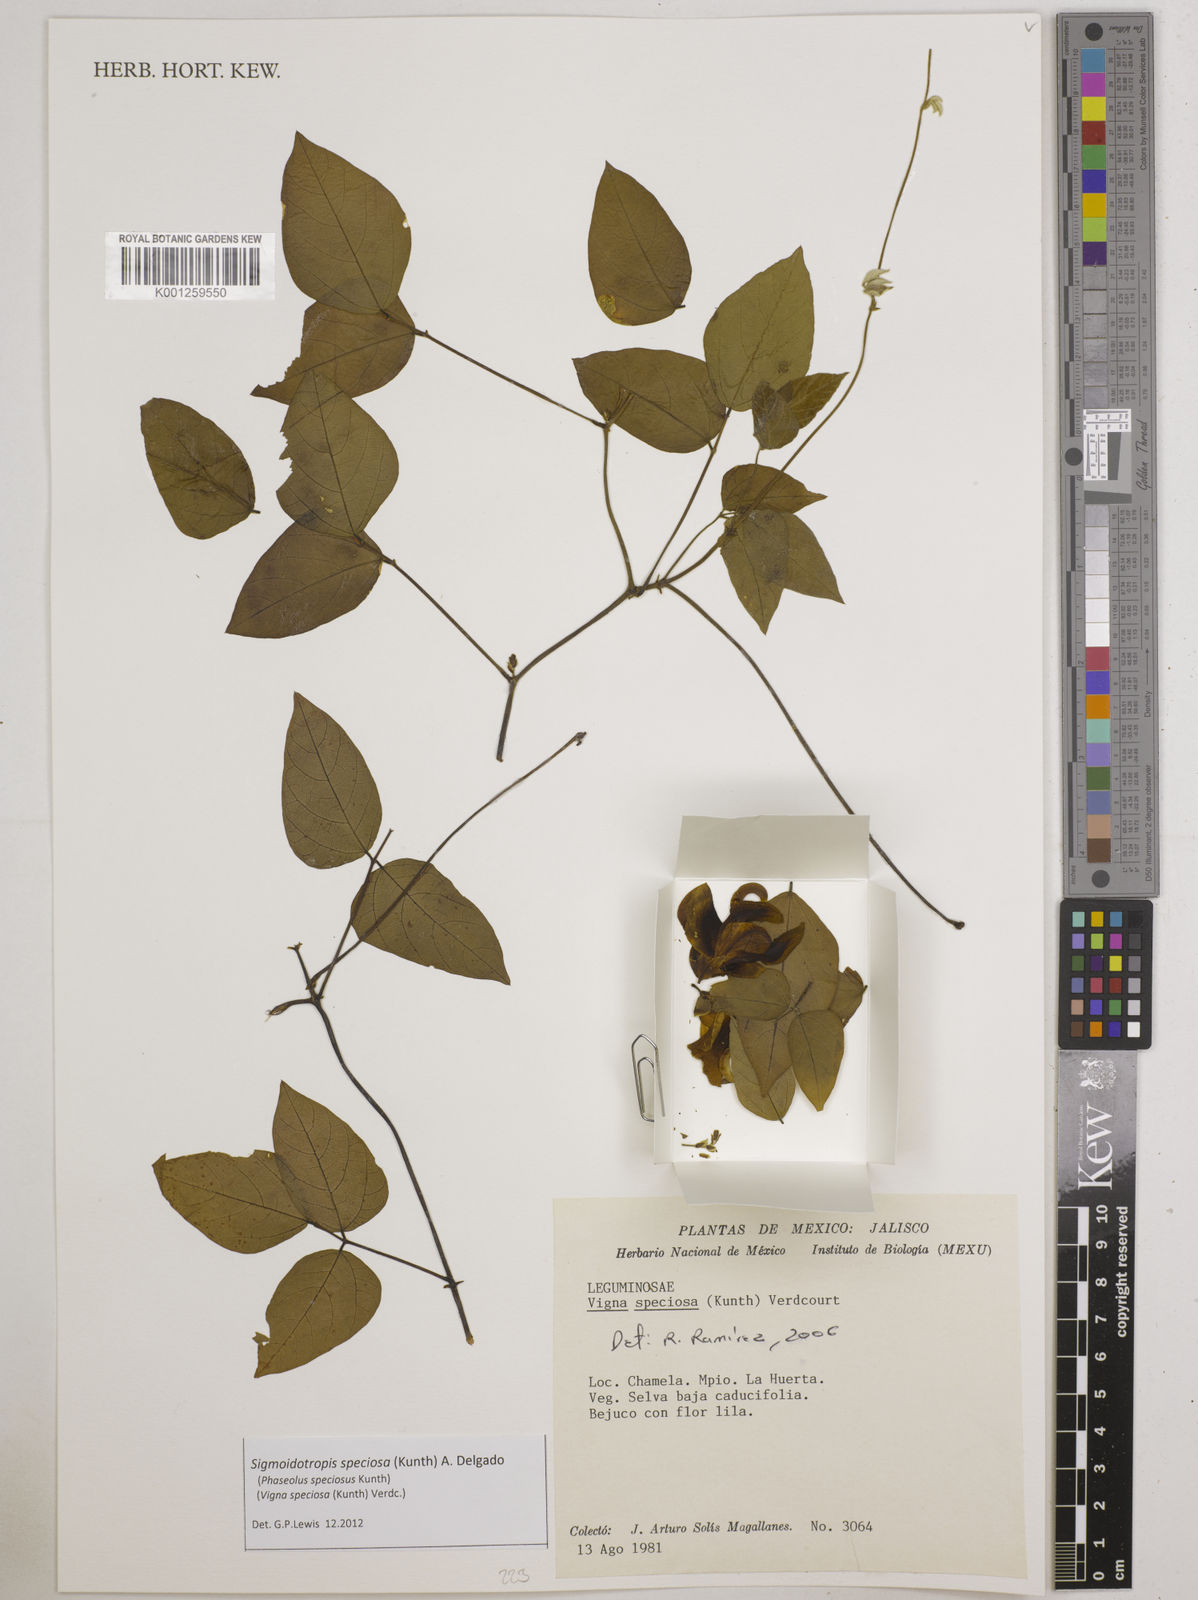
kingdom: Plantae
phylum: Tracheophyta
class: Magnoliopsida
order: Fabales
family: Fabaceae
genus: Sigmoidotropis
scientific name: Sigmoidotropis speciosa
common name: Snail flower
